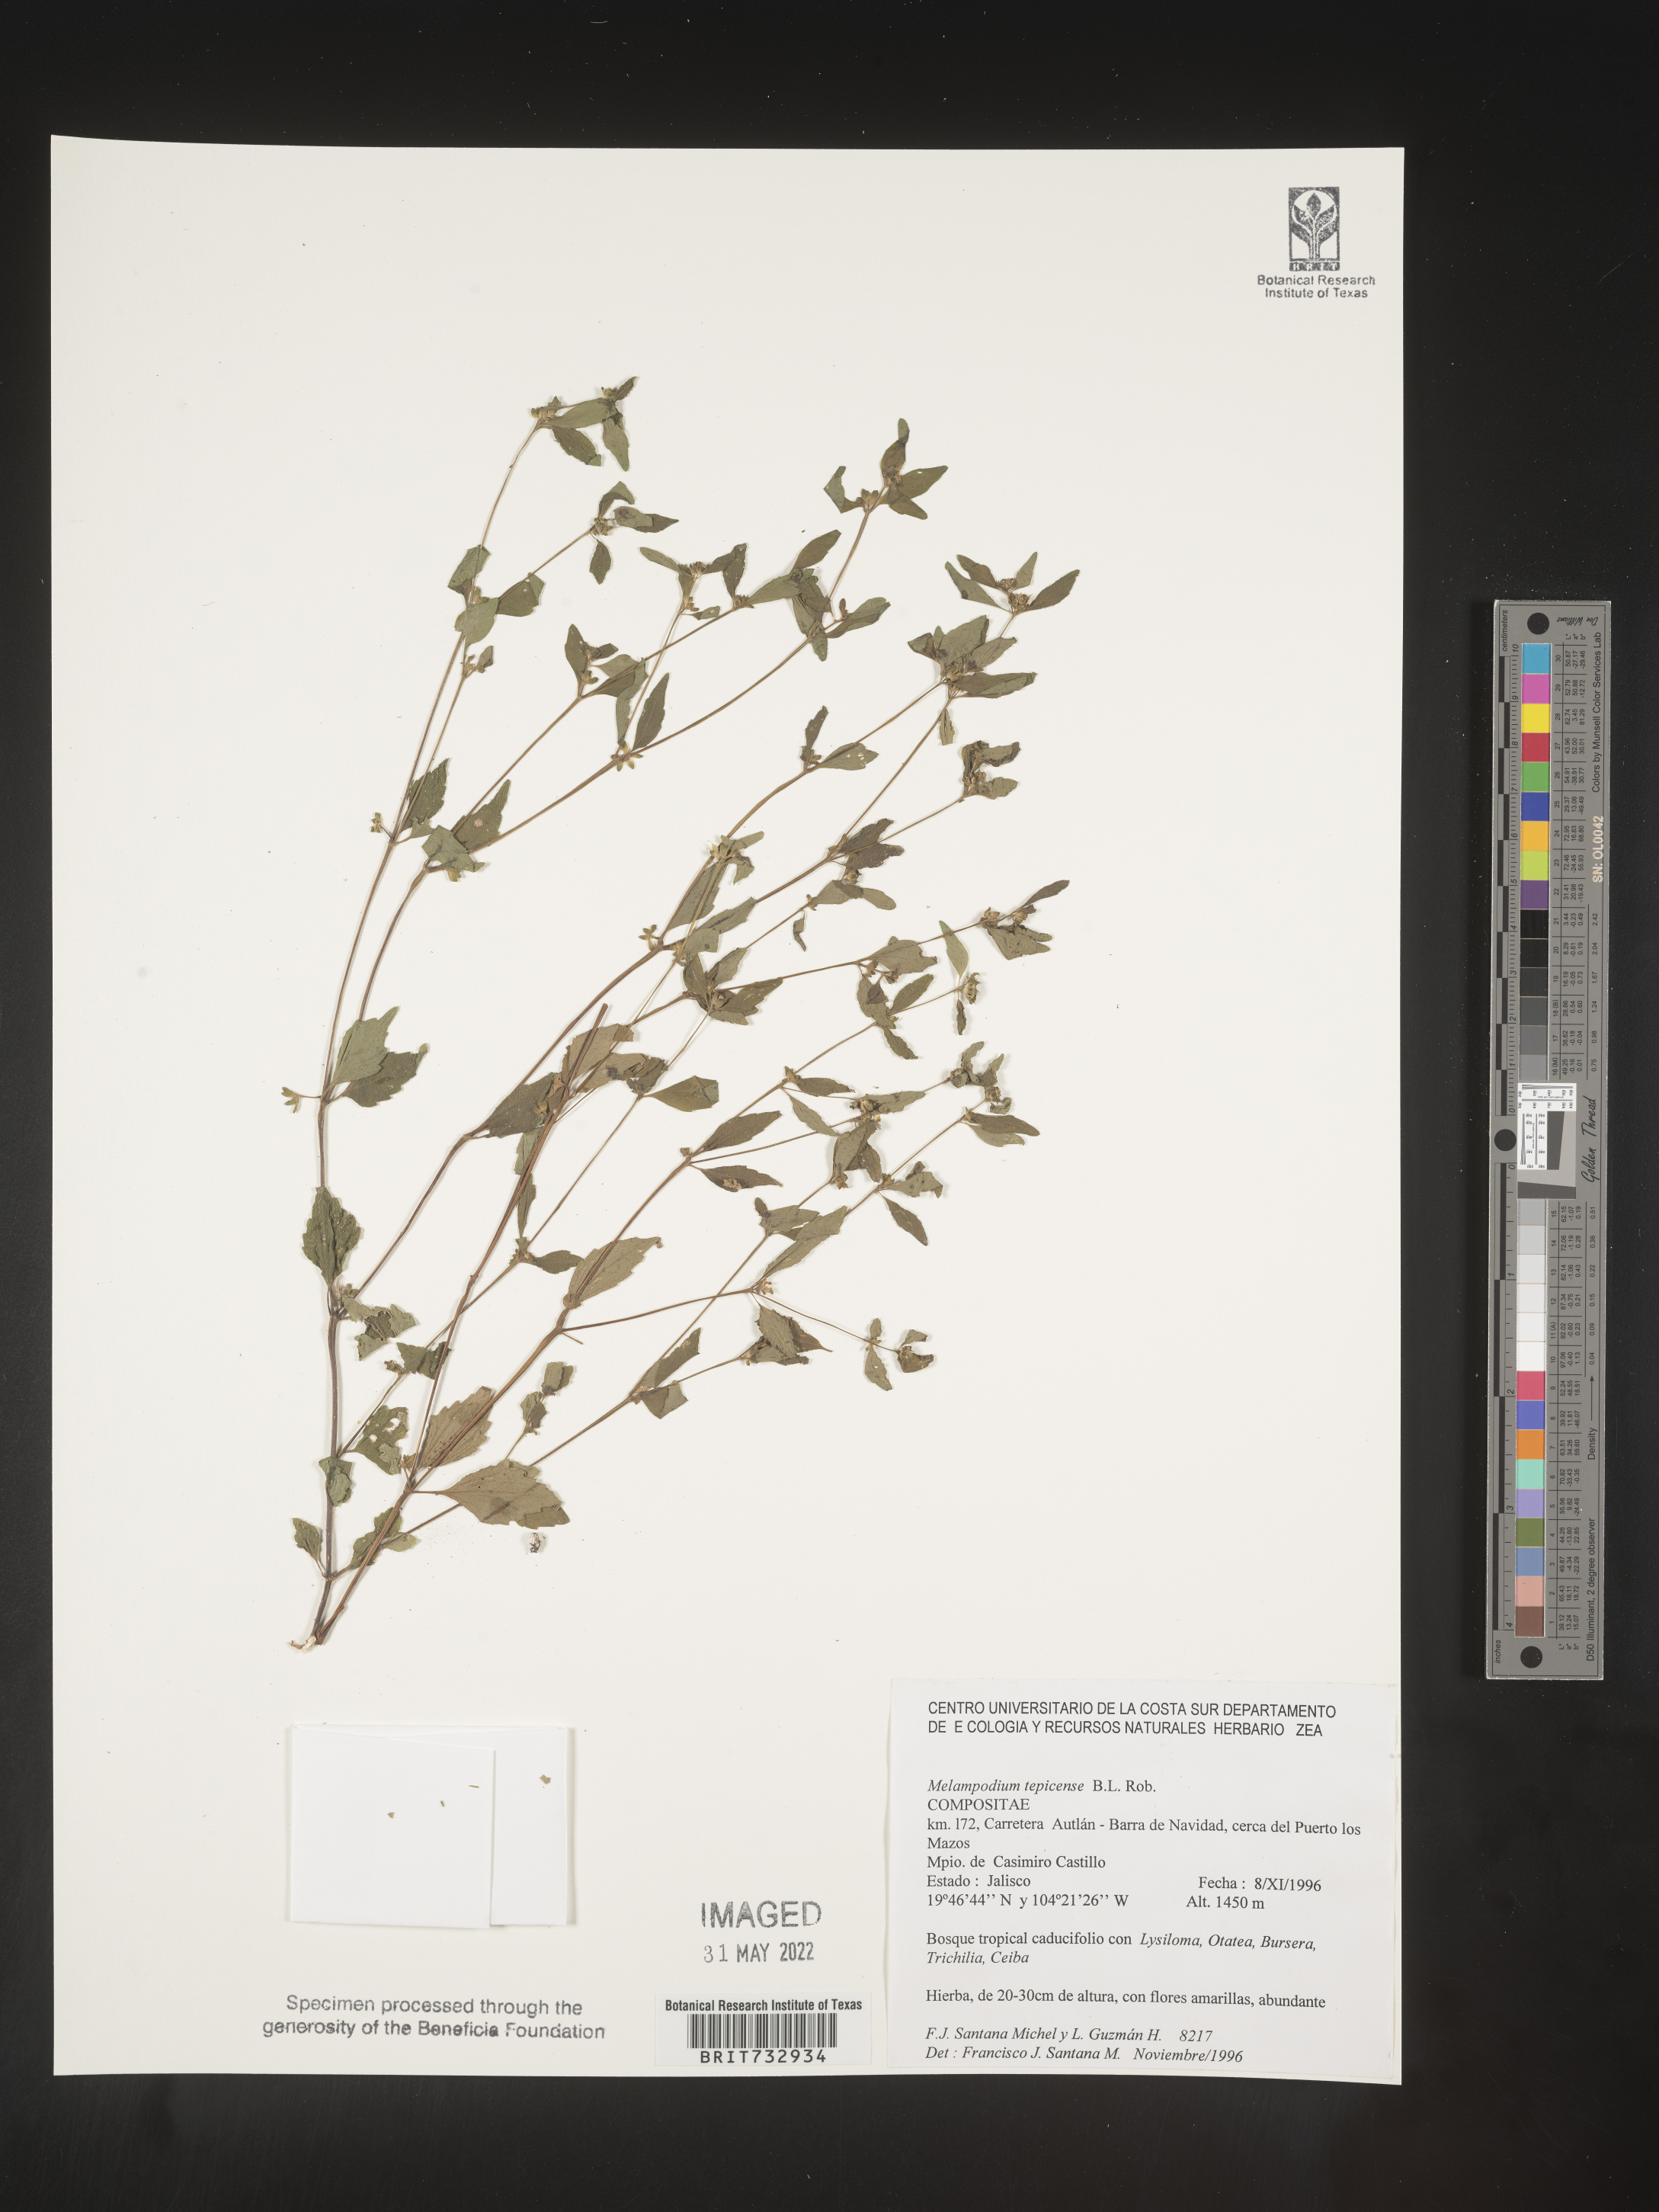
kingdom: Plantae
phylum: Tracheophyta
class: Magnoliopsida
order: Asterales
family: Asteraceae
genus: Melampodium
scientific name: Melampodium
